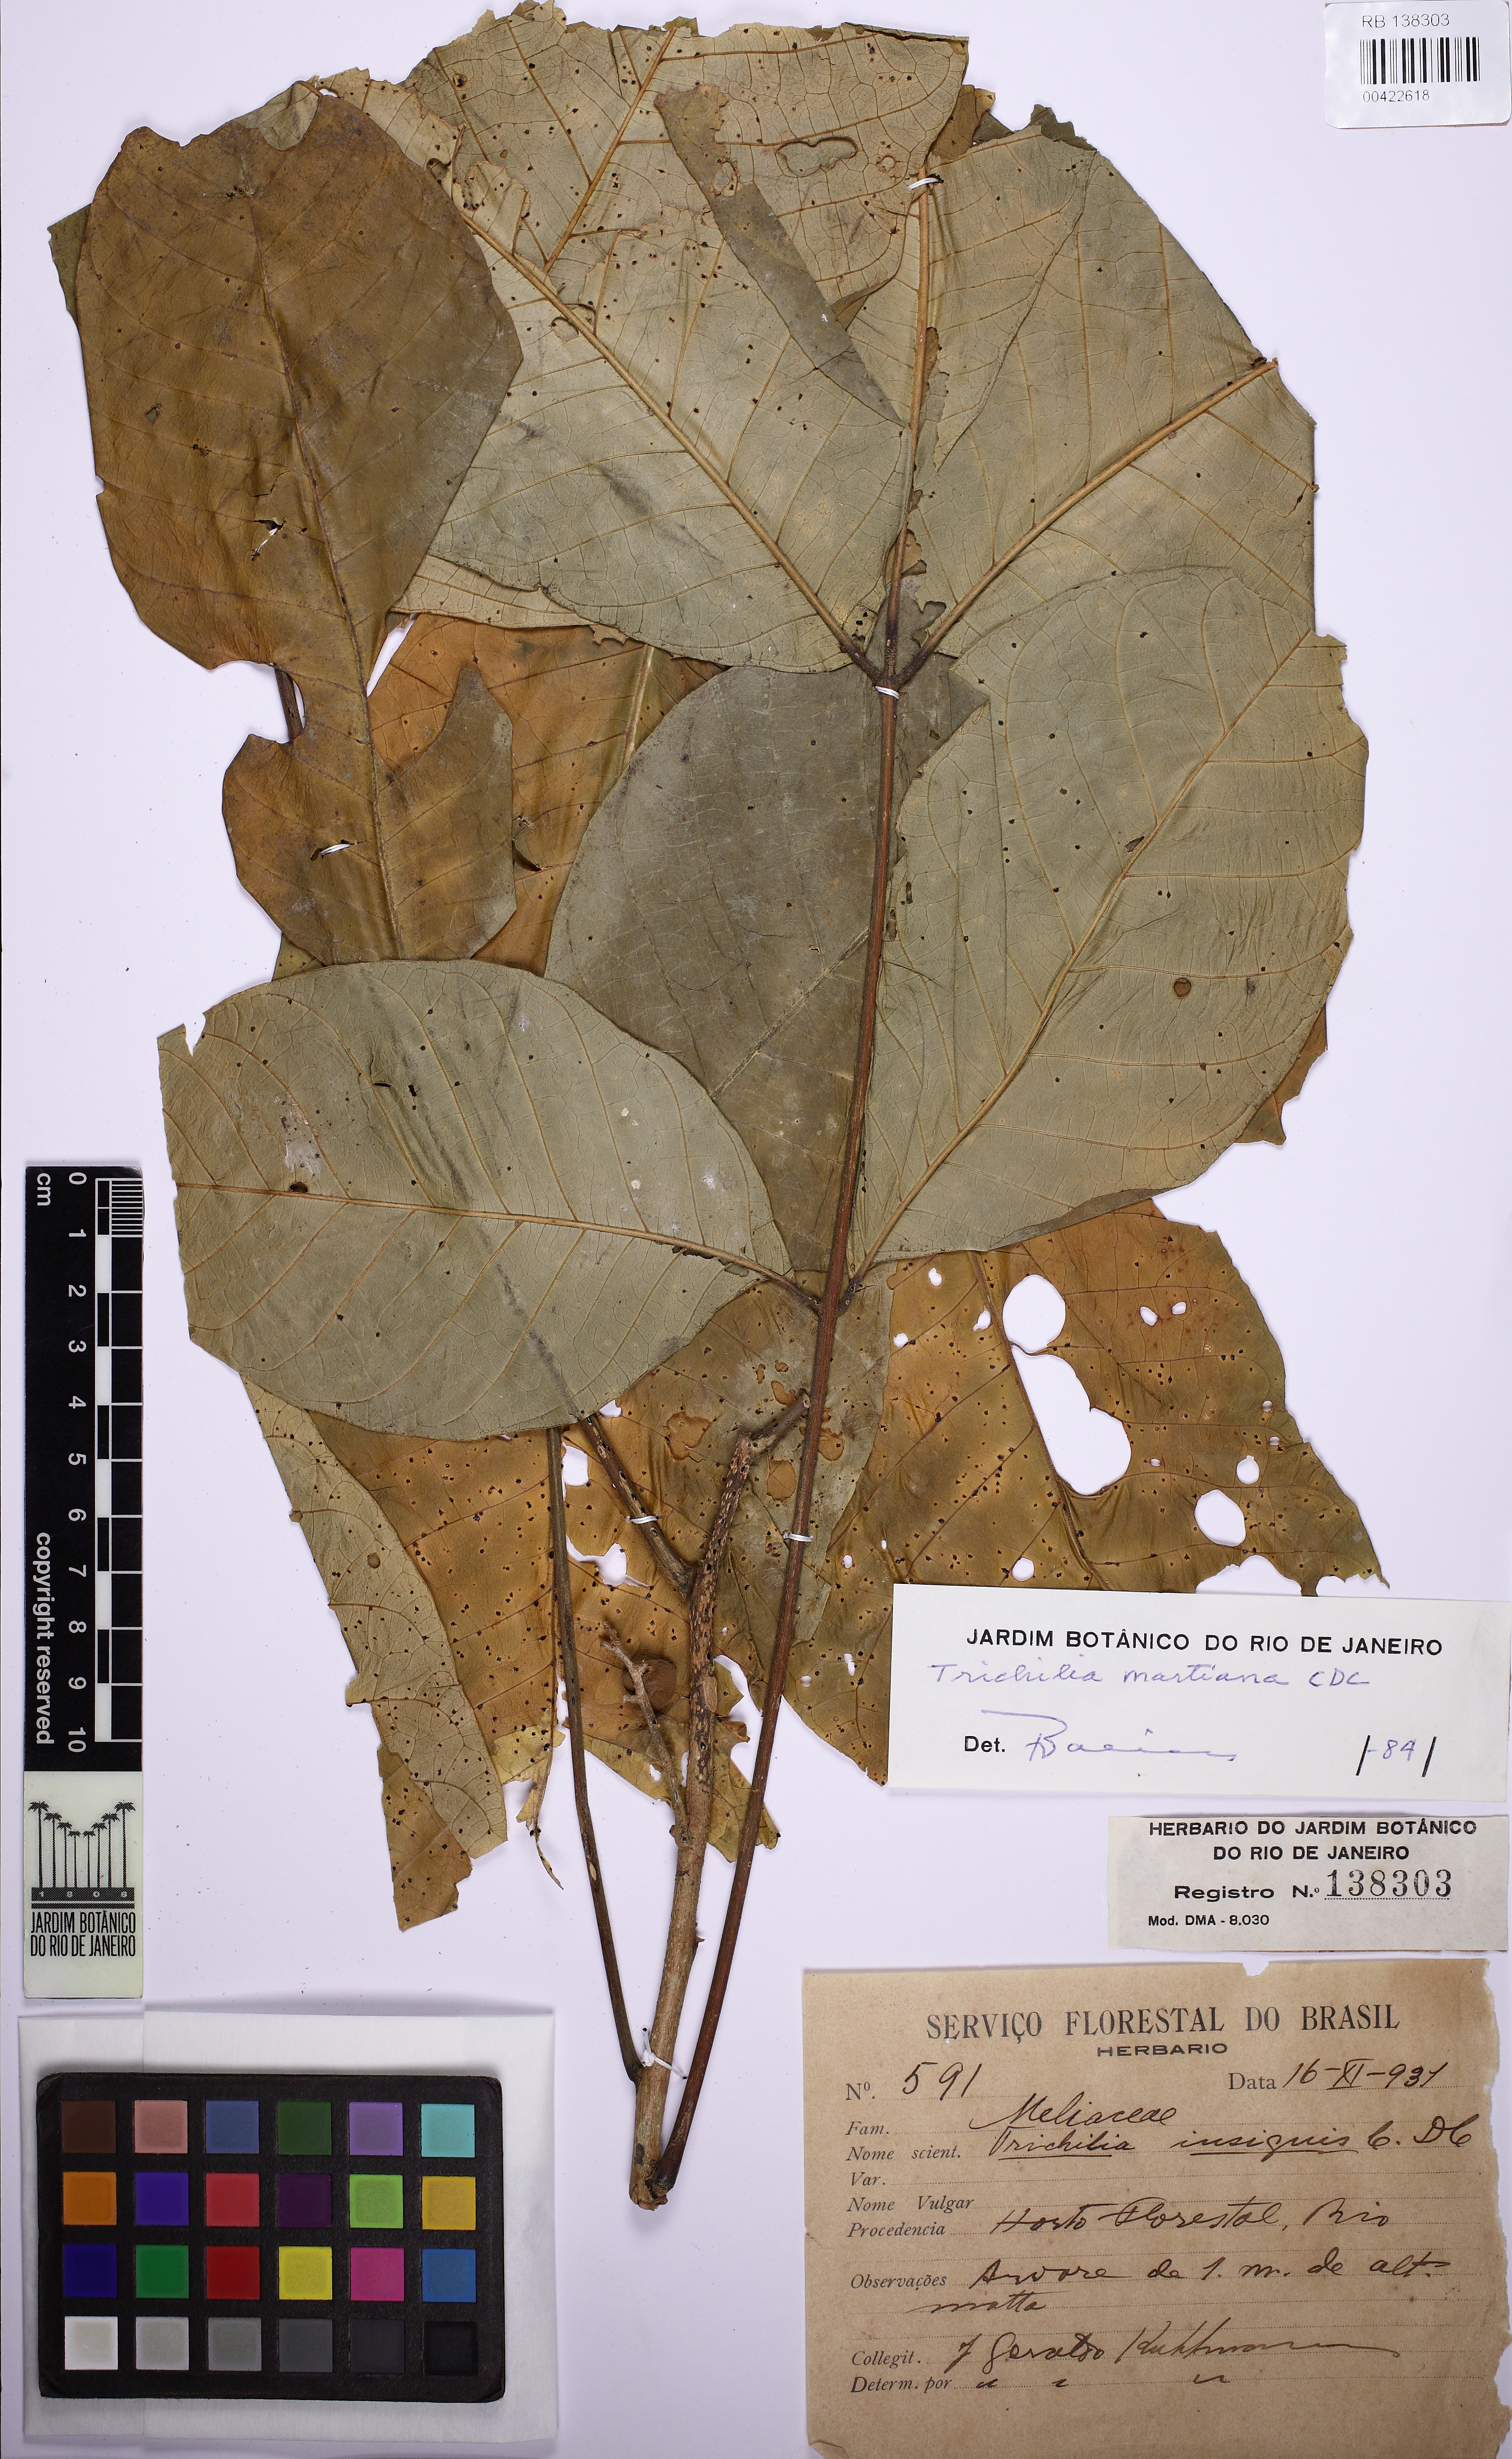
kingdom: Plantae
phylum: Tracheophyta
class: Magnoliopsida
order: Sapindales
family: Meliaceae
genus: Trichilia
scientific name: Trichilia martiana
